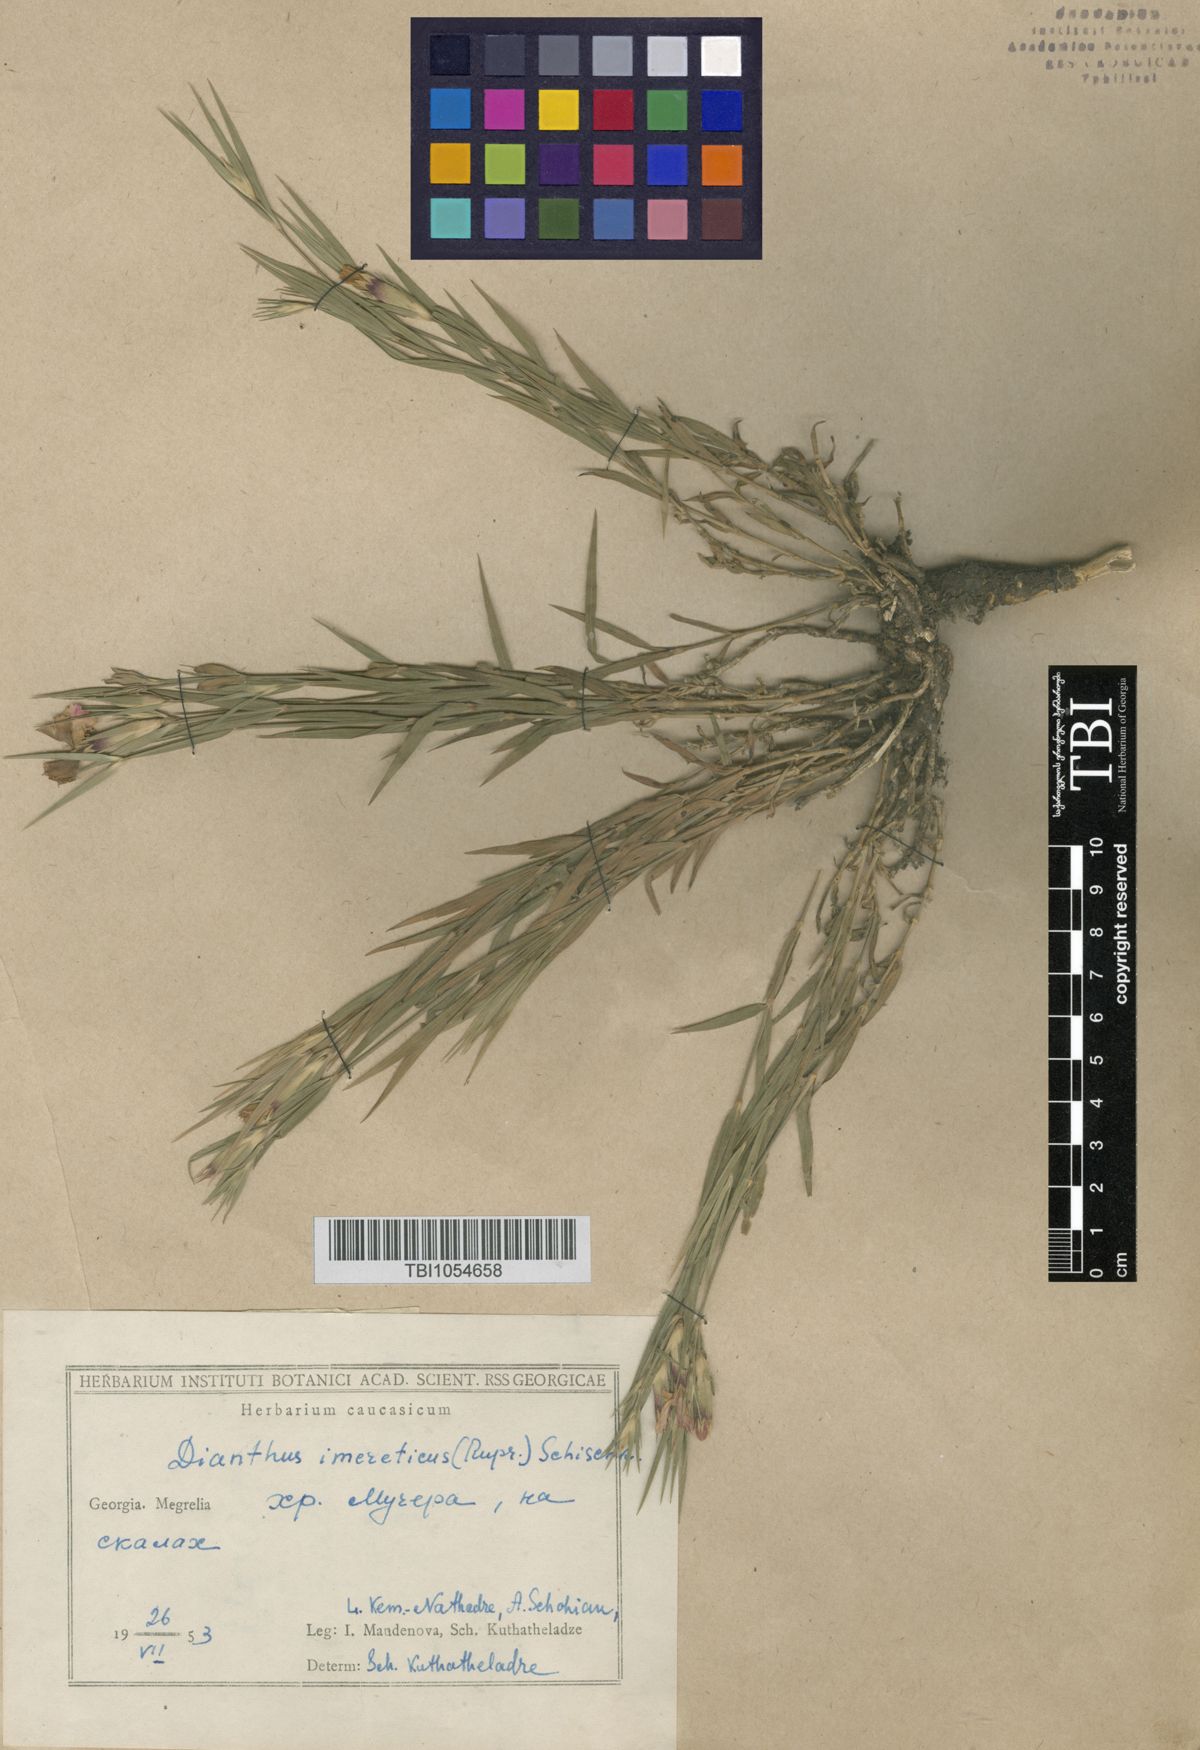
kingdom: Plantae
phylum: Tracheophyta
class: Magnoliopsida
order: Caryophyllales
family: Caryophyllaceae
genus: Dianthus
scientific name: Dianthus kusnezovii
